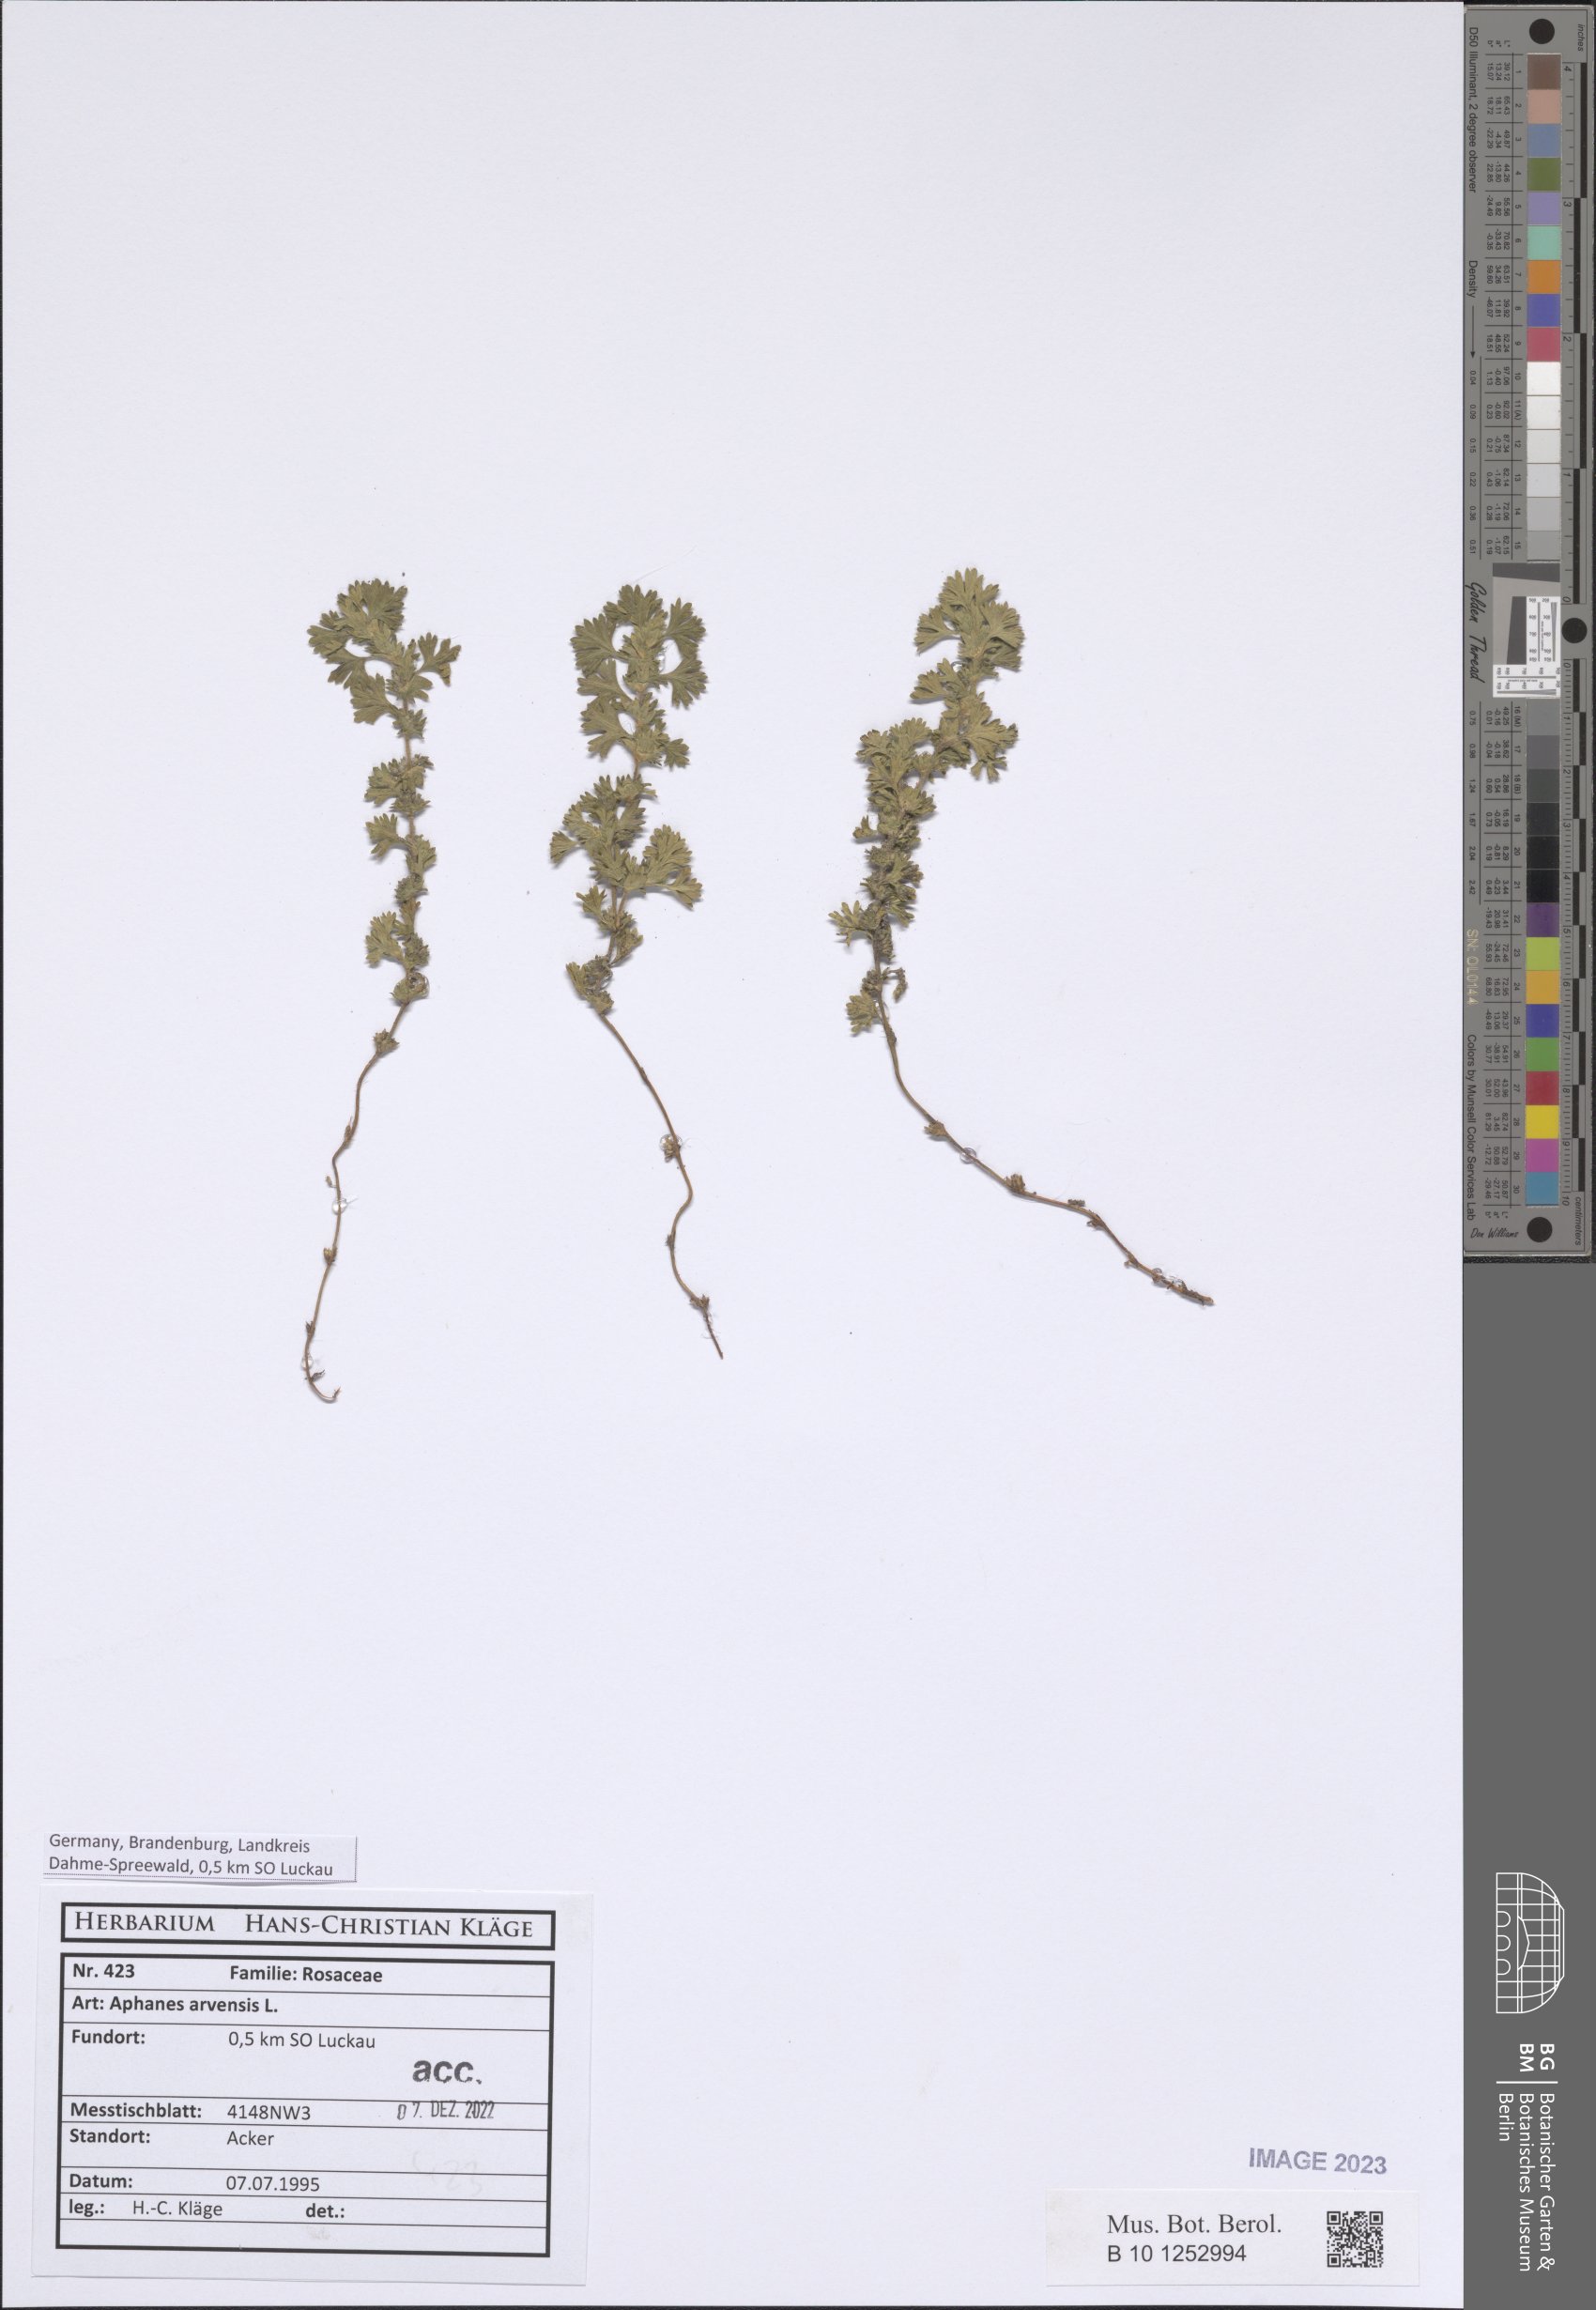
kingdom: Plantae
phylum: Tracheophyta
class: Magnoliopsida
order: Rosales
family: Rosaceae
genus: Aphanes
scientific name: Aphanes arvensis
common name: Parsley-piert
